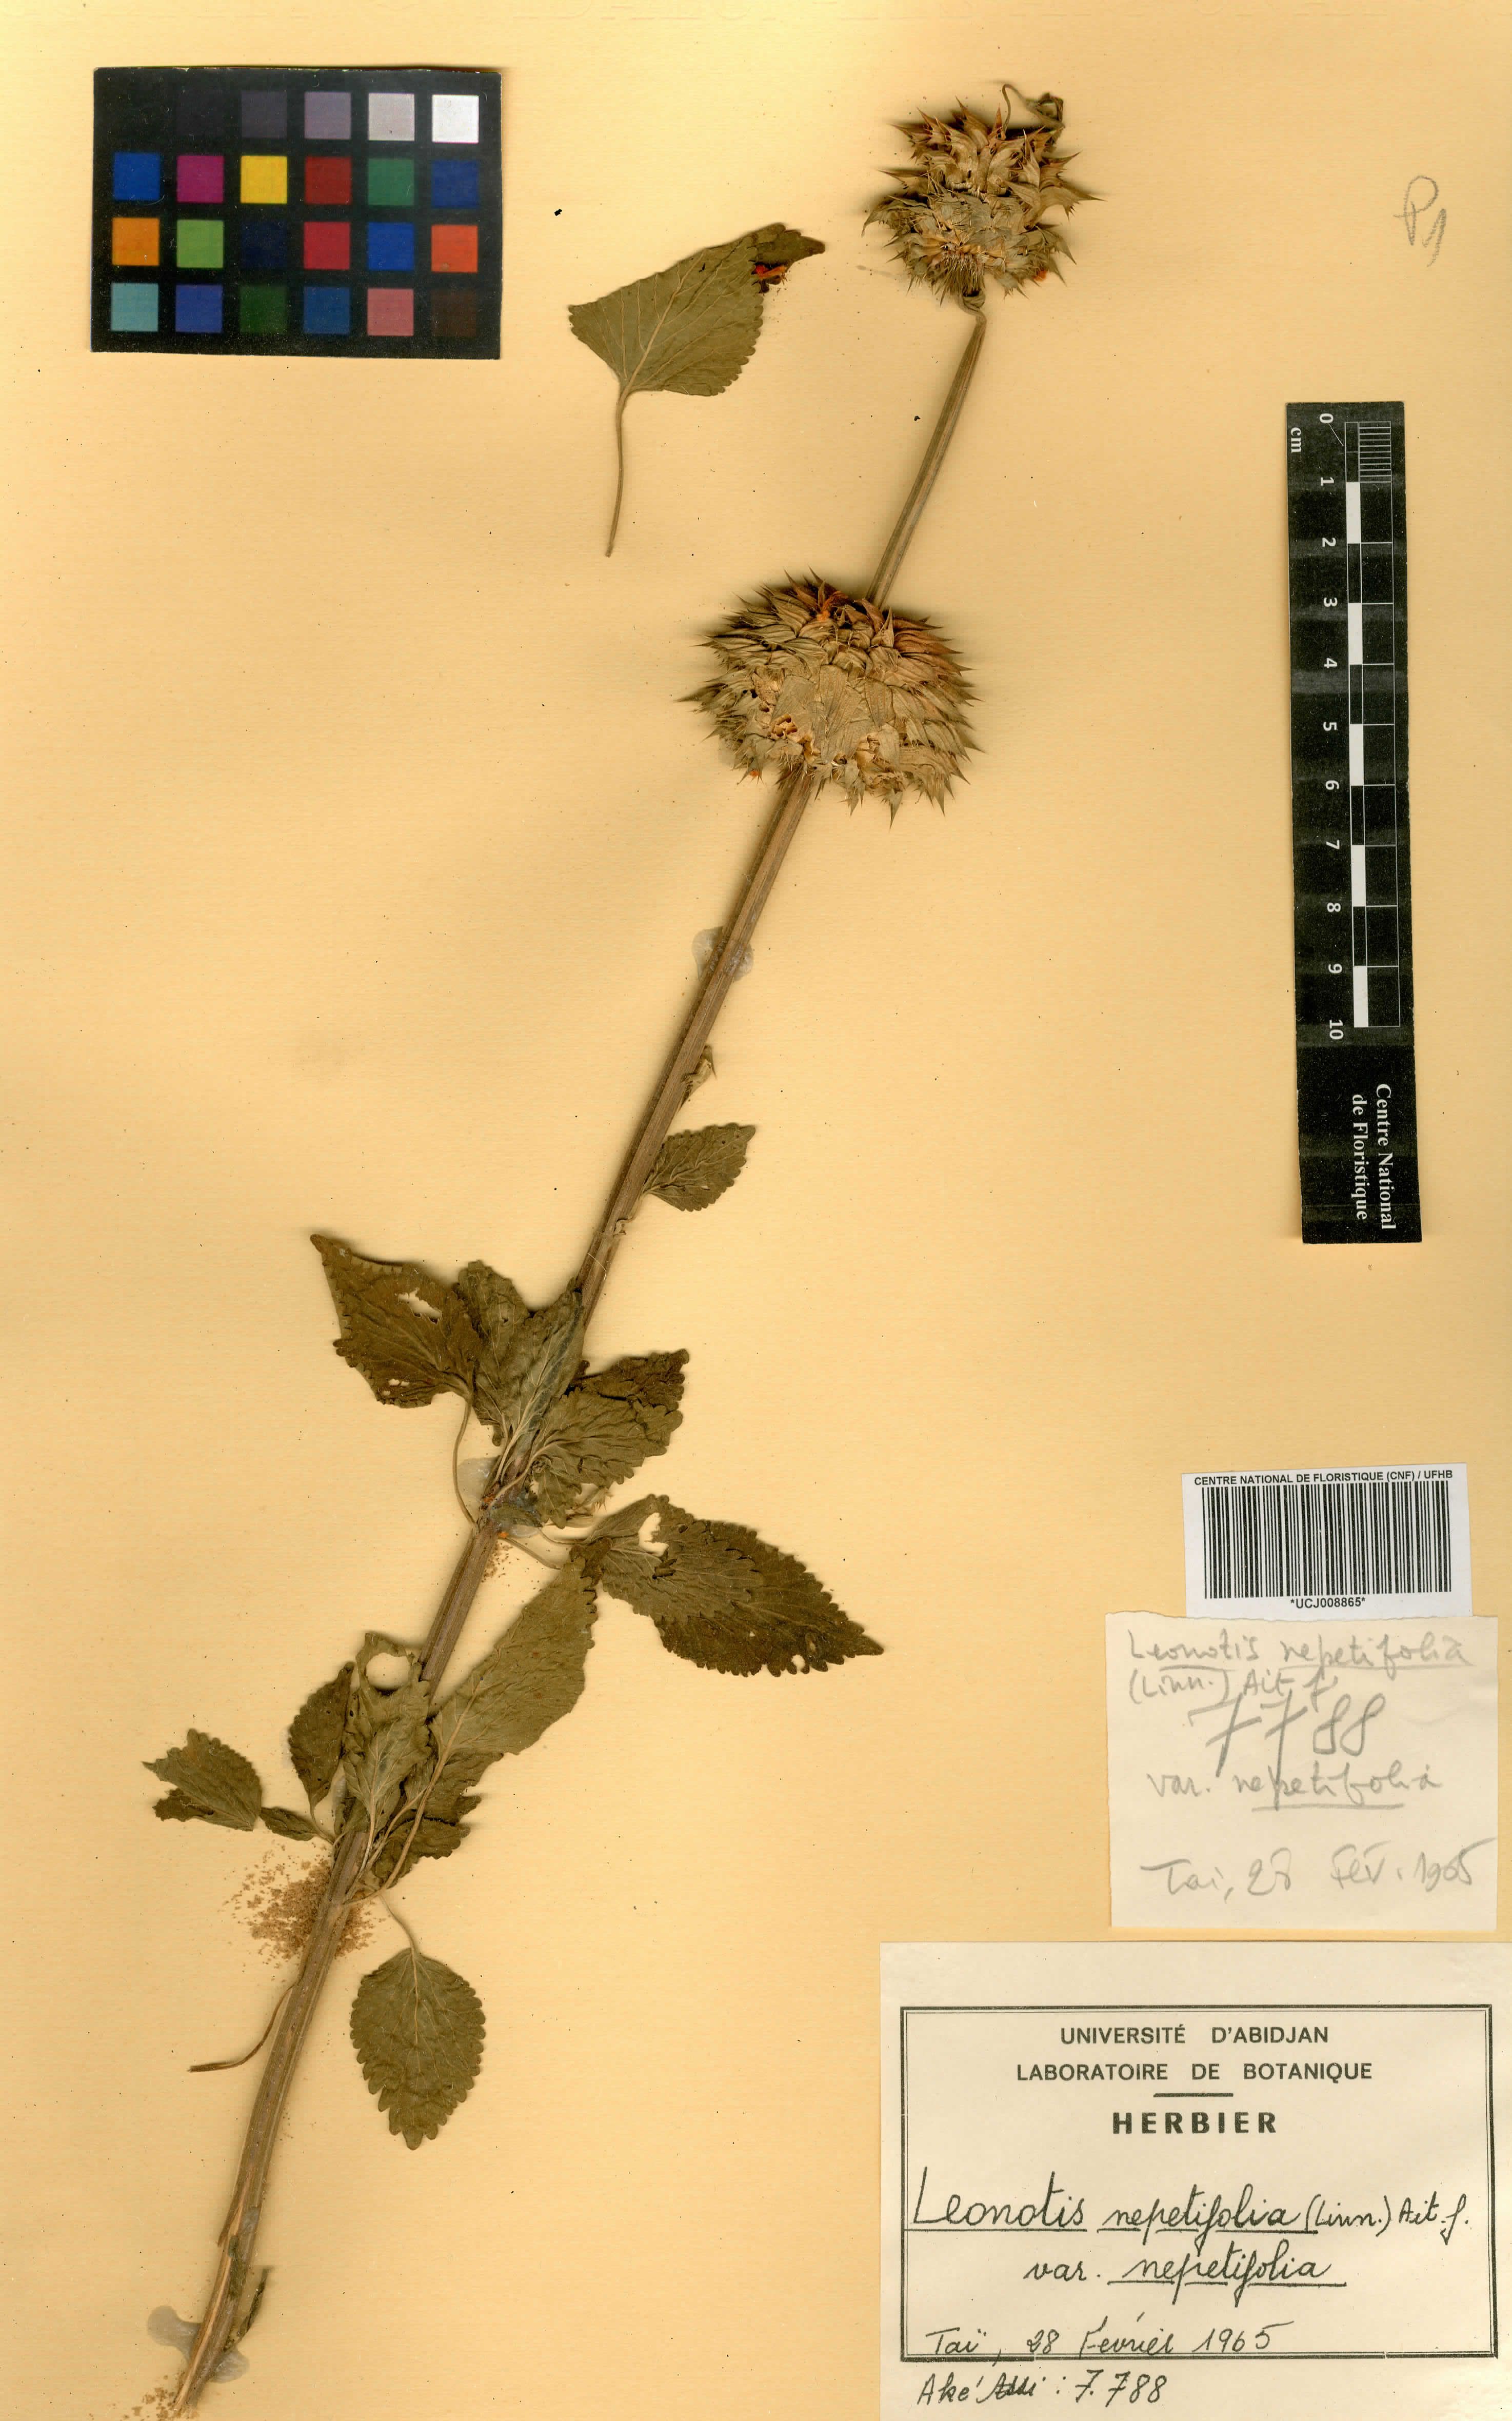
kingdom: Plantae
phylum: Tracheophyta
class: Magnoliopsida
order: Lamiales
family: Lamiaceae
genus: Leonotis
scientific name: Leonotis nepetifolia
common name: Christmas candlestick
